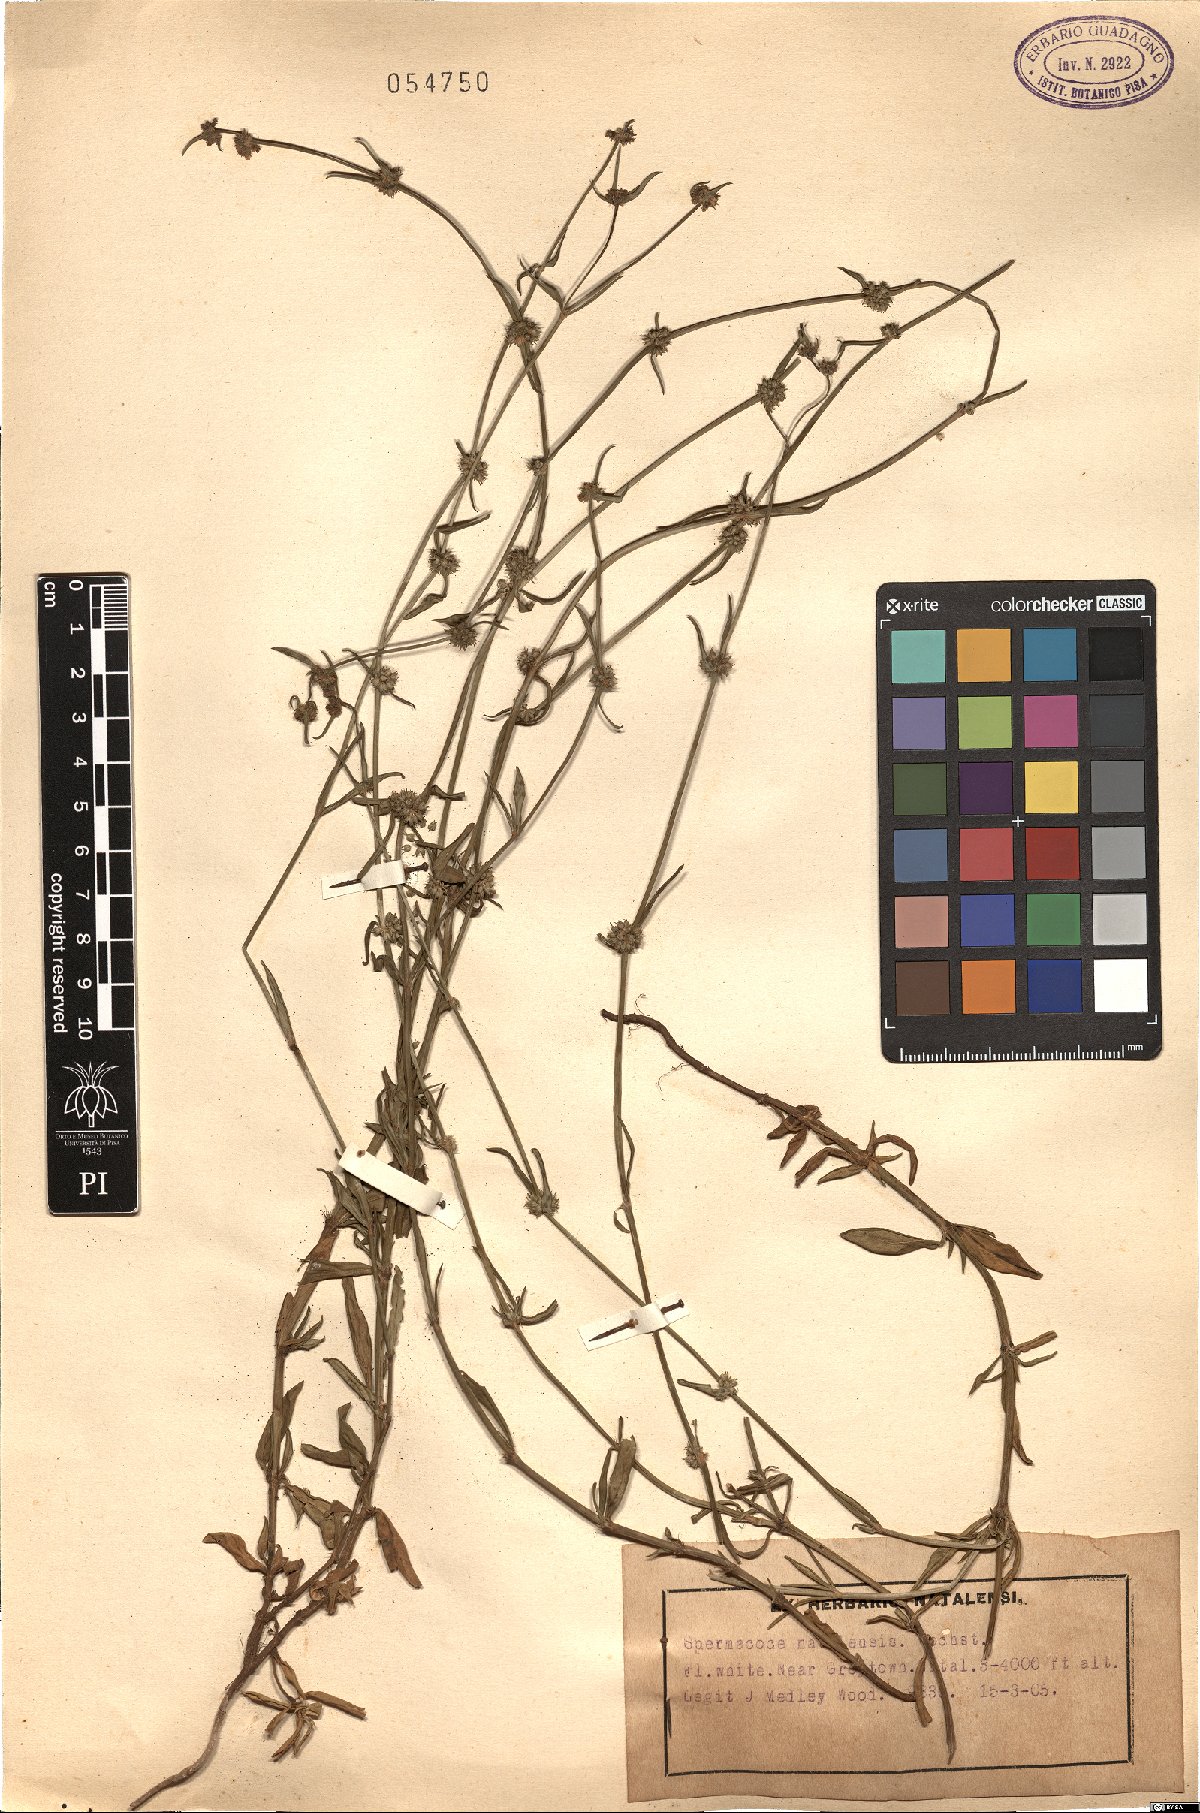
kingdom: Plantae
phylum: Tracheophyta
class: Magnoliopsida
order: Gentianales
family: Rubiaceae
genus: Spermacoce
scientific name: Spermacoce natalensis
